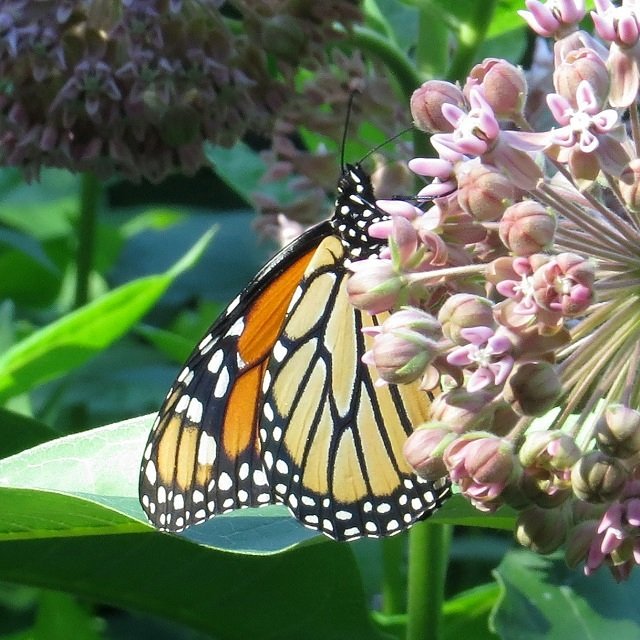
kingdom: Animalia
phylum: Arthropoda
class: Insecta
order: Lepidoptera
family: Nymphalidae
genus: Danaus
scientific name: Danaus plexippus
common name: Monarch
